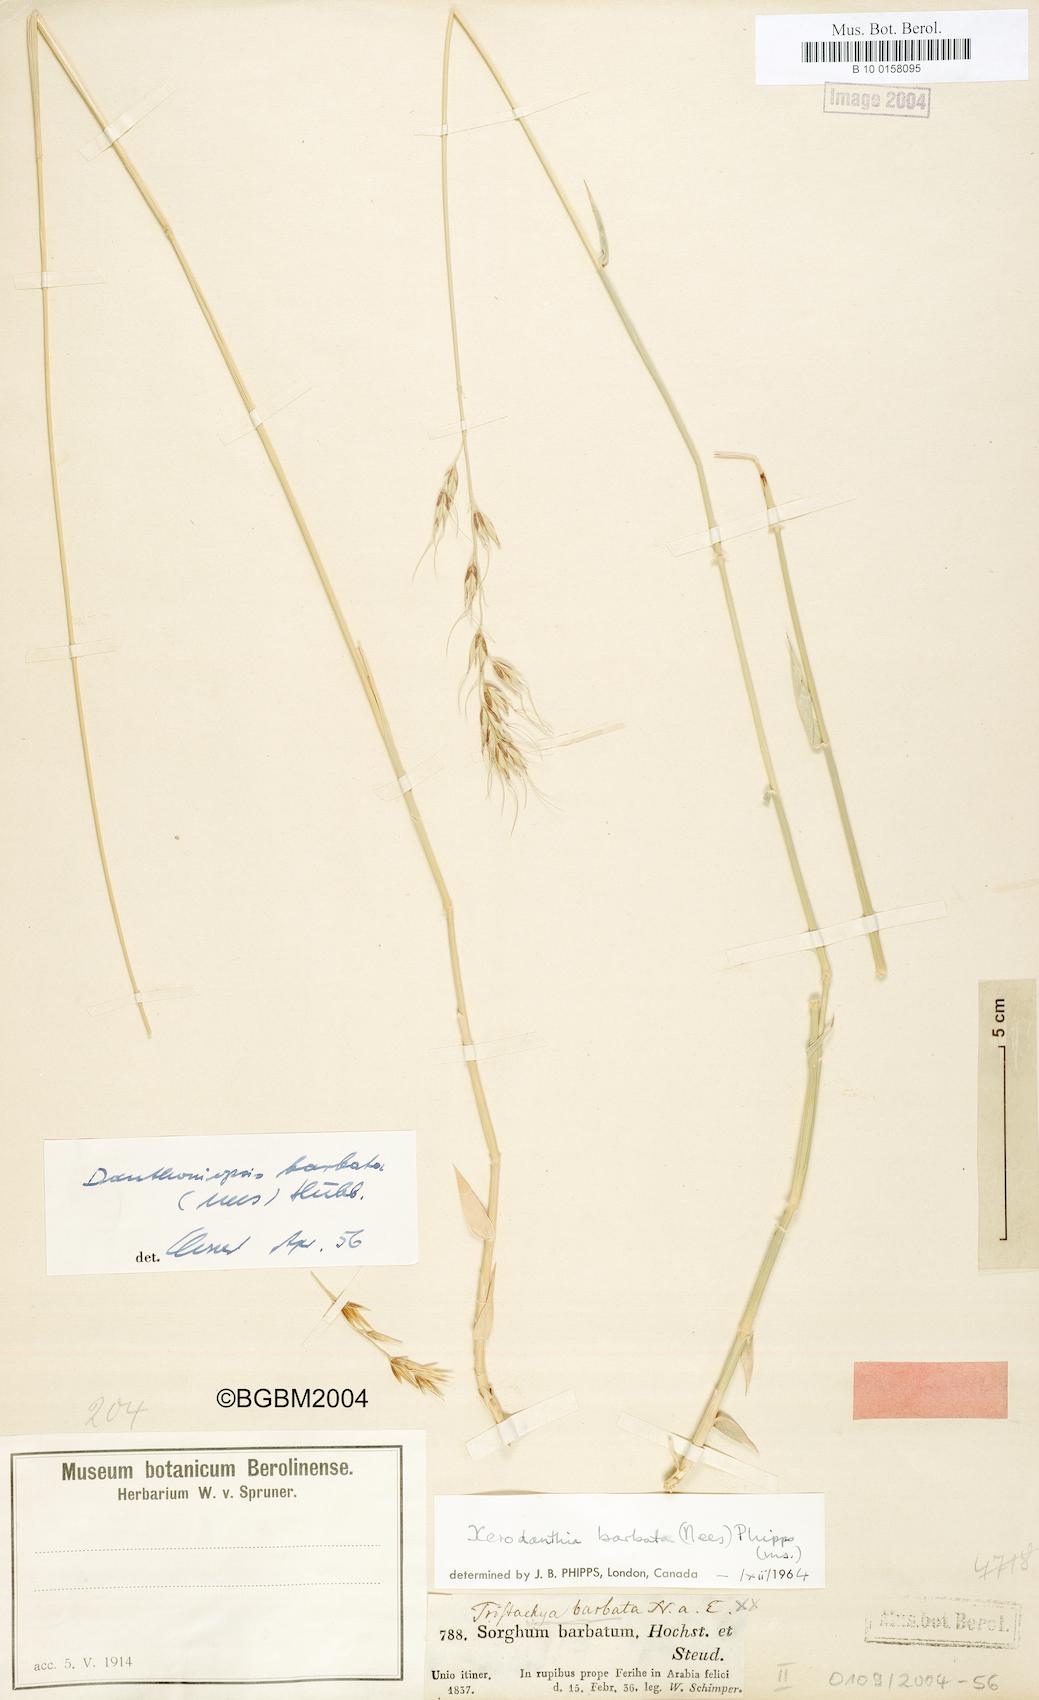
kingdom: Plantae
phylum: Tracheophyta
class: Liliopsida
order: Poales
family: Poaceae
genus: Danthoniopsis
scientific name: Danthoniopsis barbata
